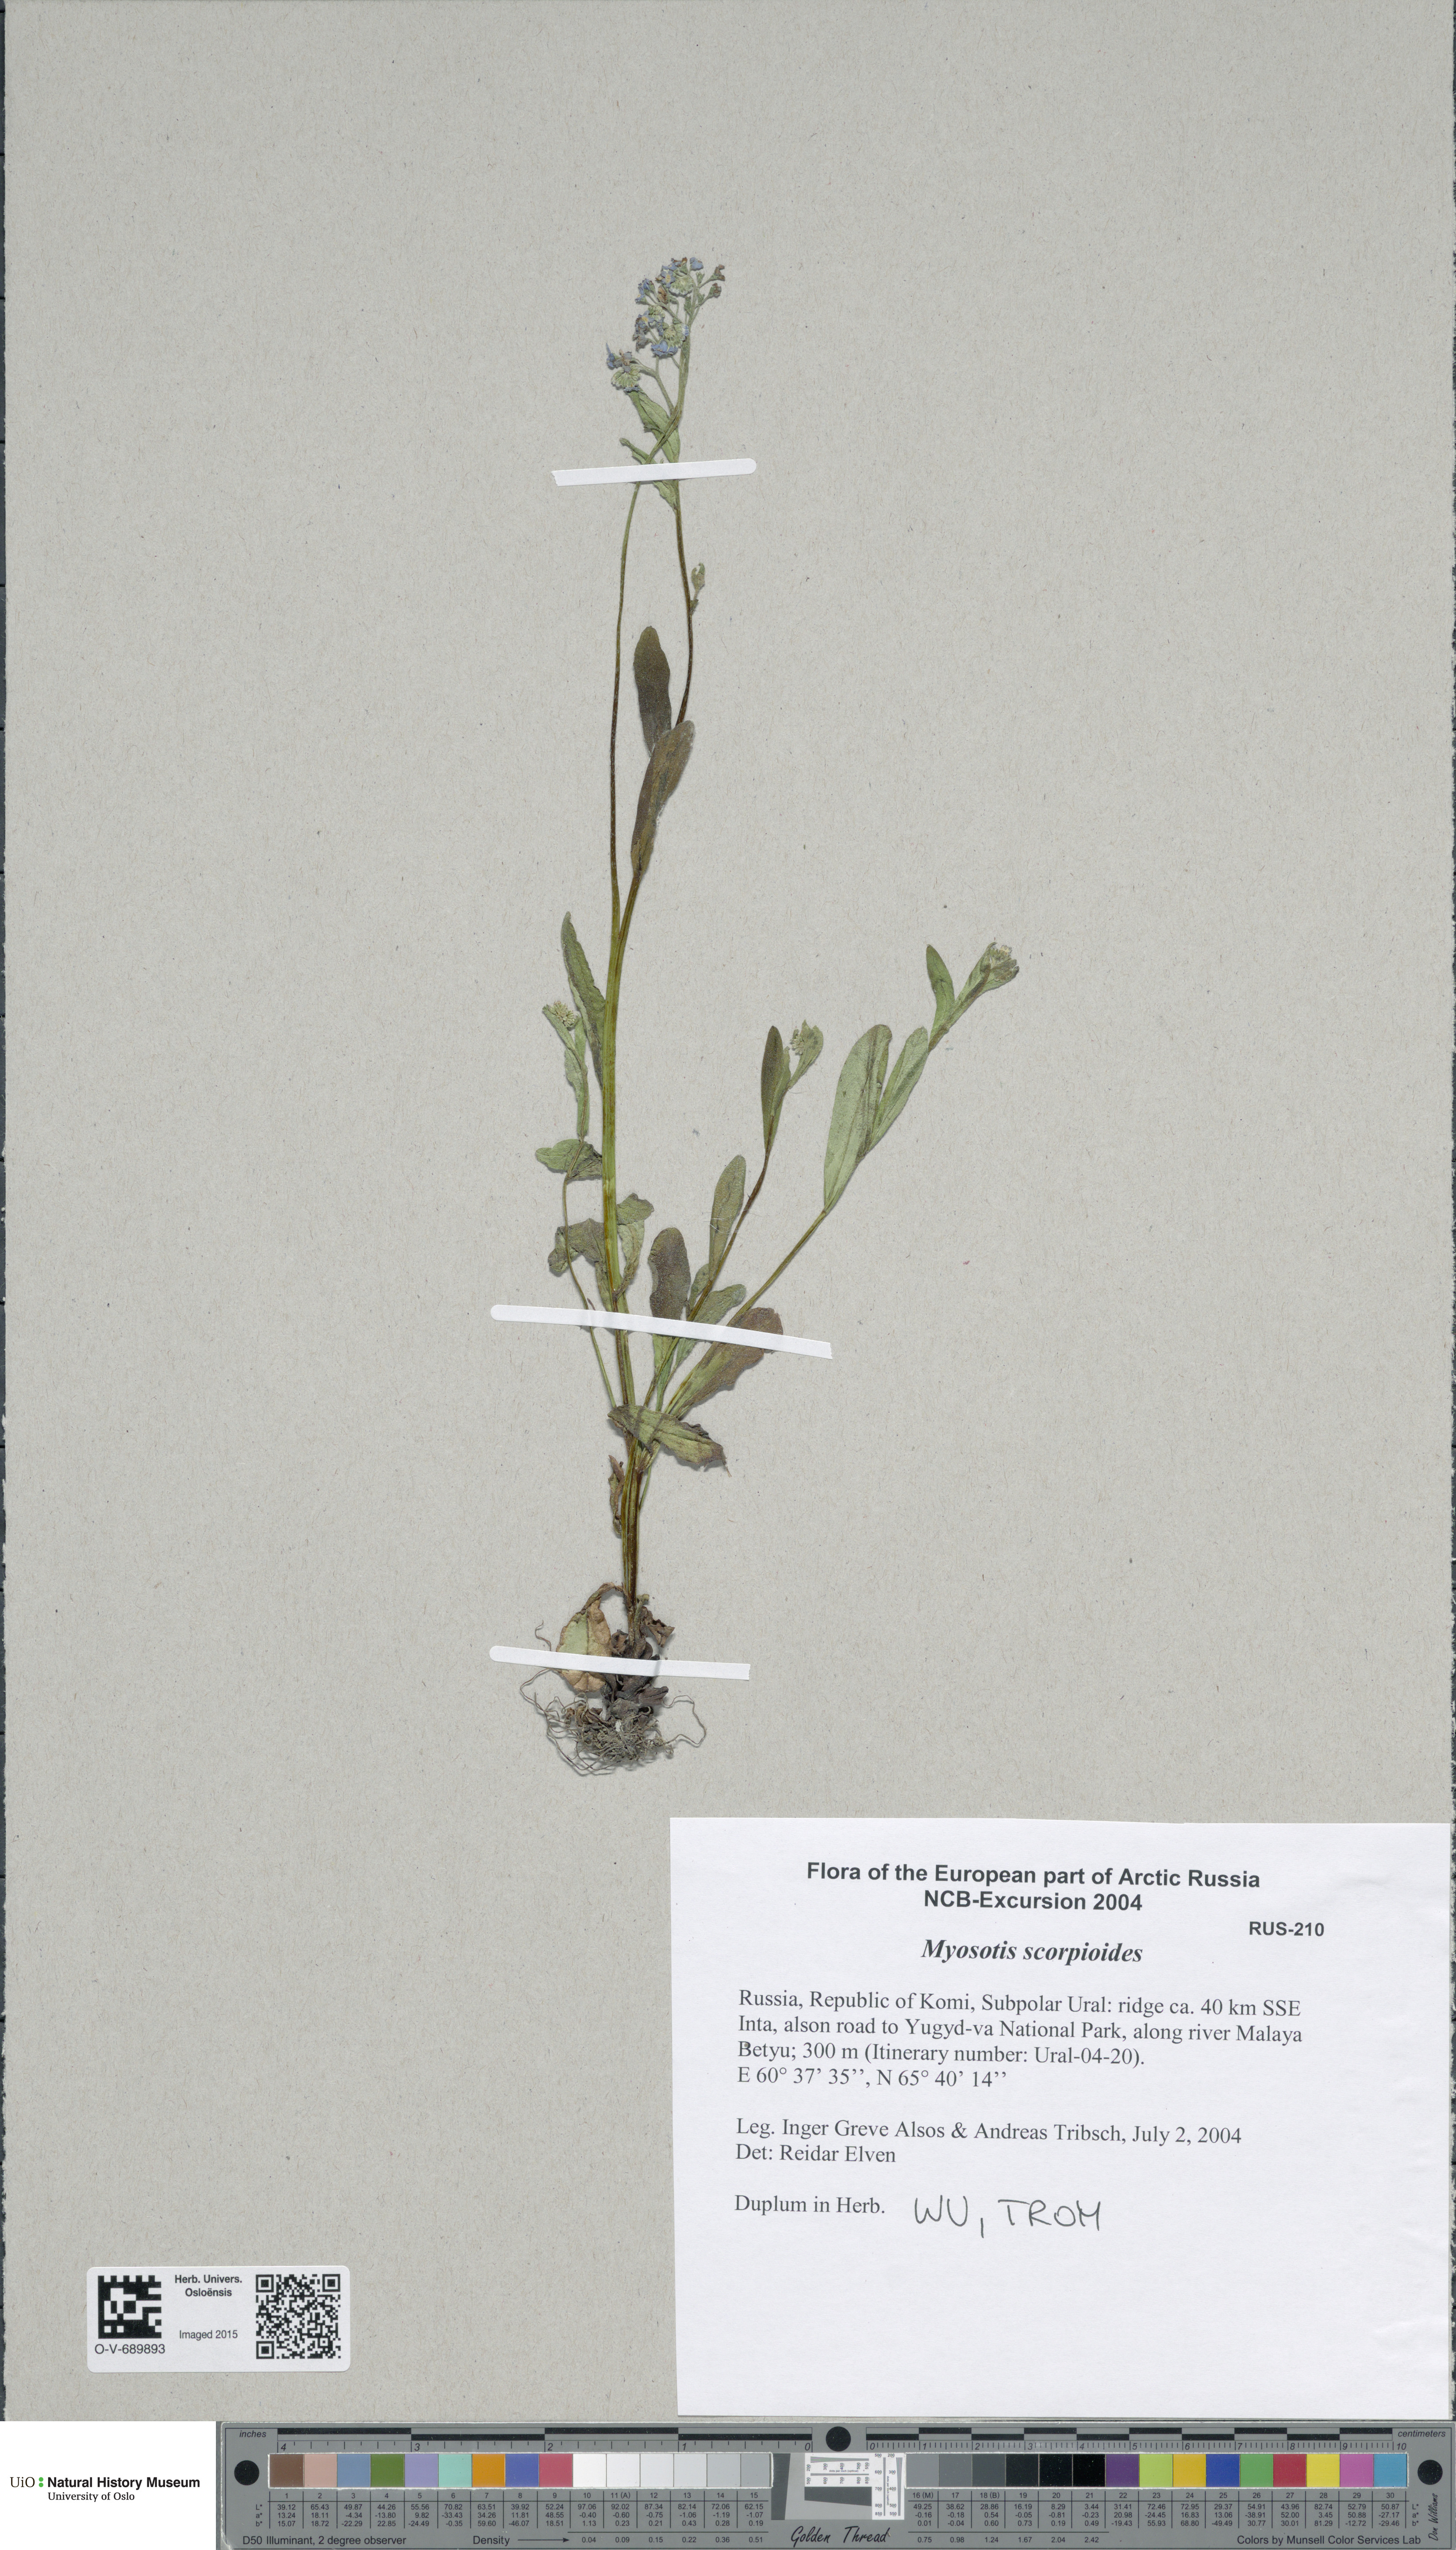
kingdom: Plantae
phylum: Tracheophyta
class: Magnoliopsida
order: Boraginales
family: Boraginaceae
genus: Myosotis
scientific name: Myosotis scorpioides
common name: Water forget-me-not
